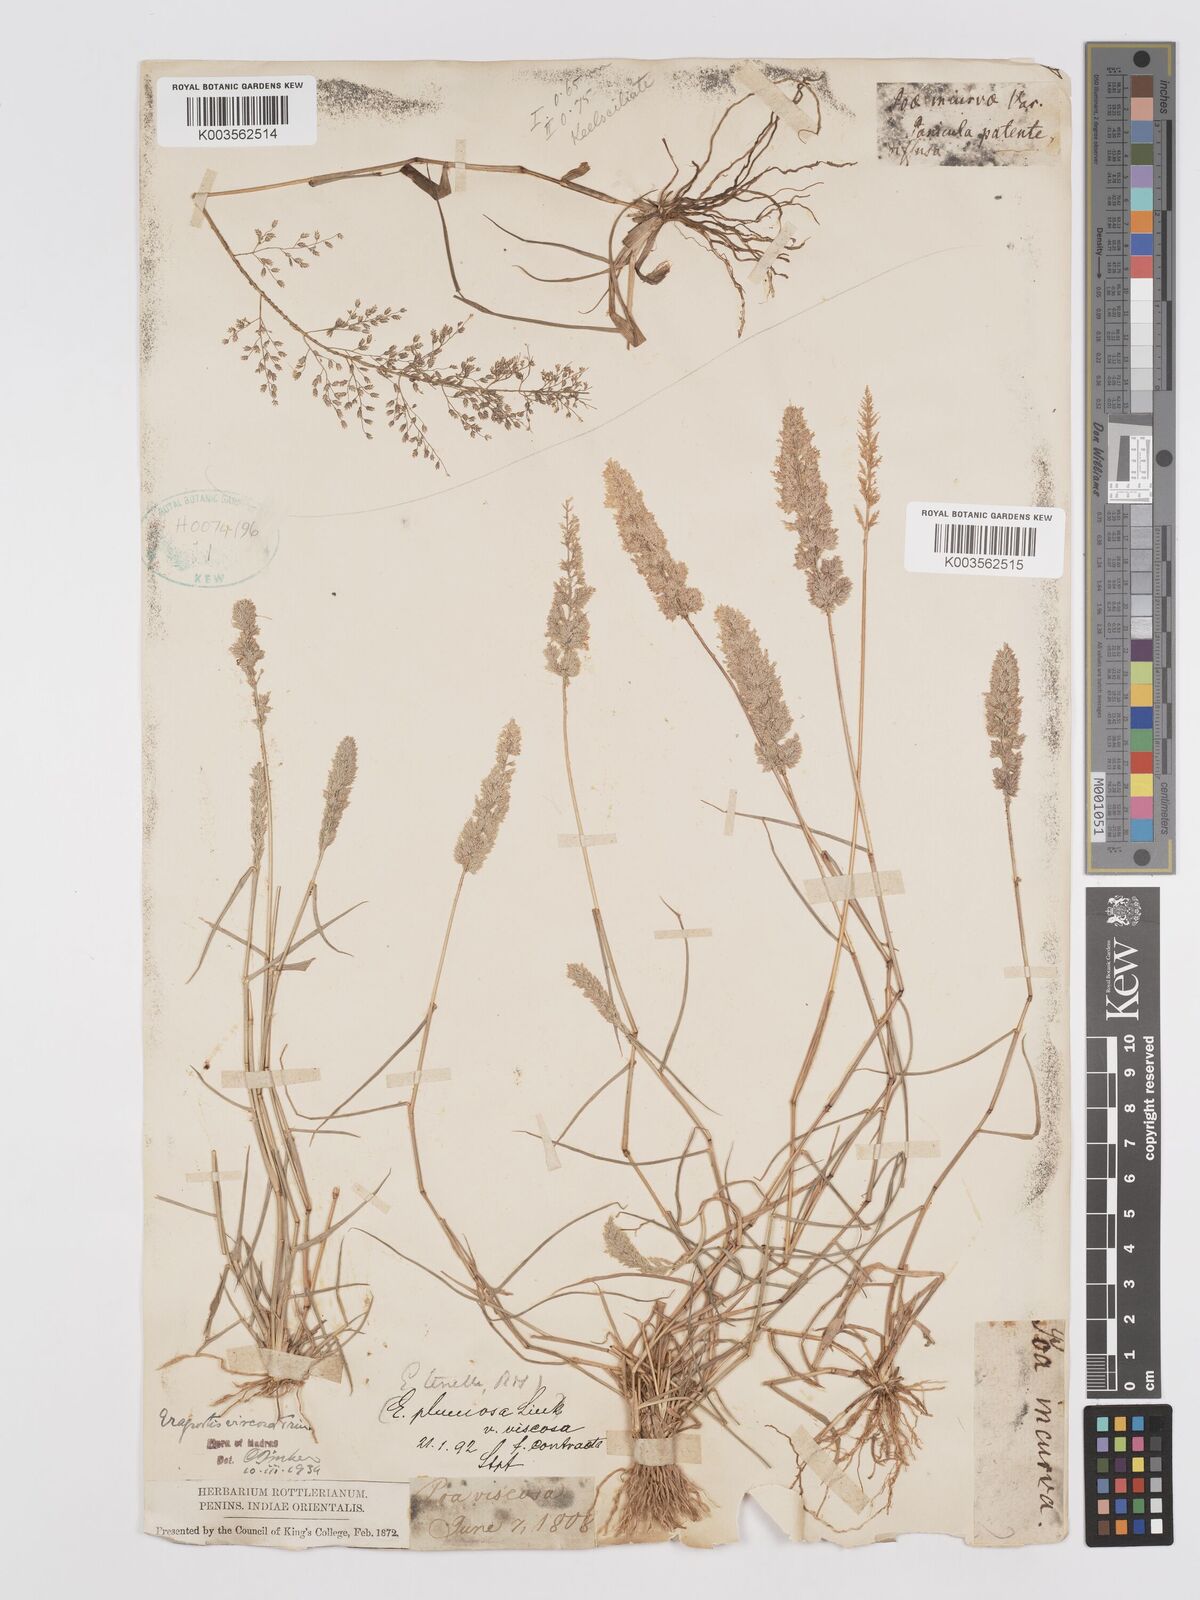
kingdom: Plantae
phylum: Tracheophyta
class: Liliopsida
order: Poales
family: Poaceae
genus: Eragrostis
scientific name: Eragrostis tenella
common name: Japanese lovegrass
